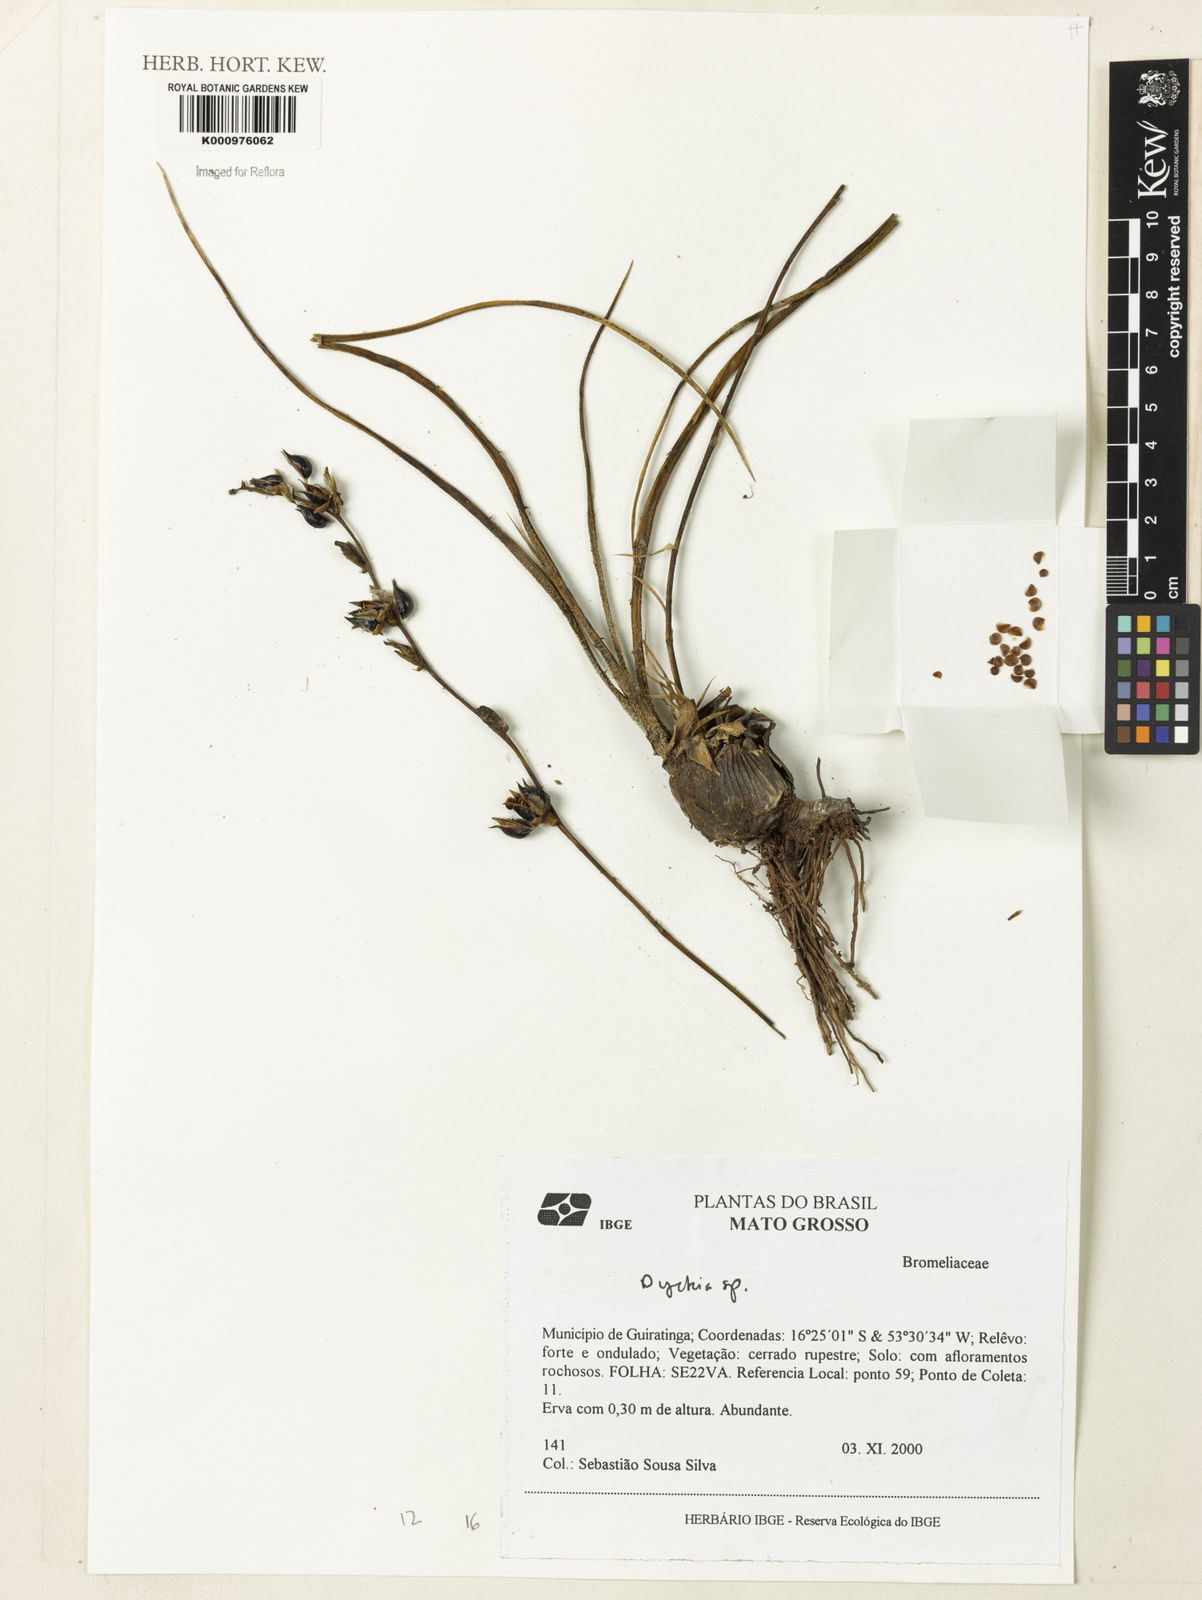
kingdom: Plantae
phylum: Tracheophyta
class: Liliopsida
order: Poales
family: Bromeliaceae
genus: Dyckia
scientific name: Dyckia
